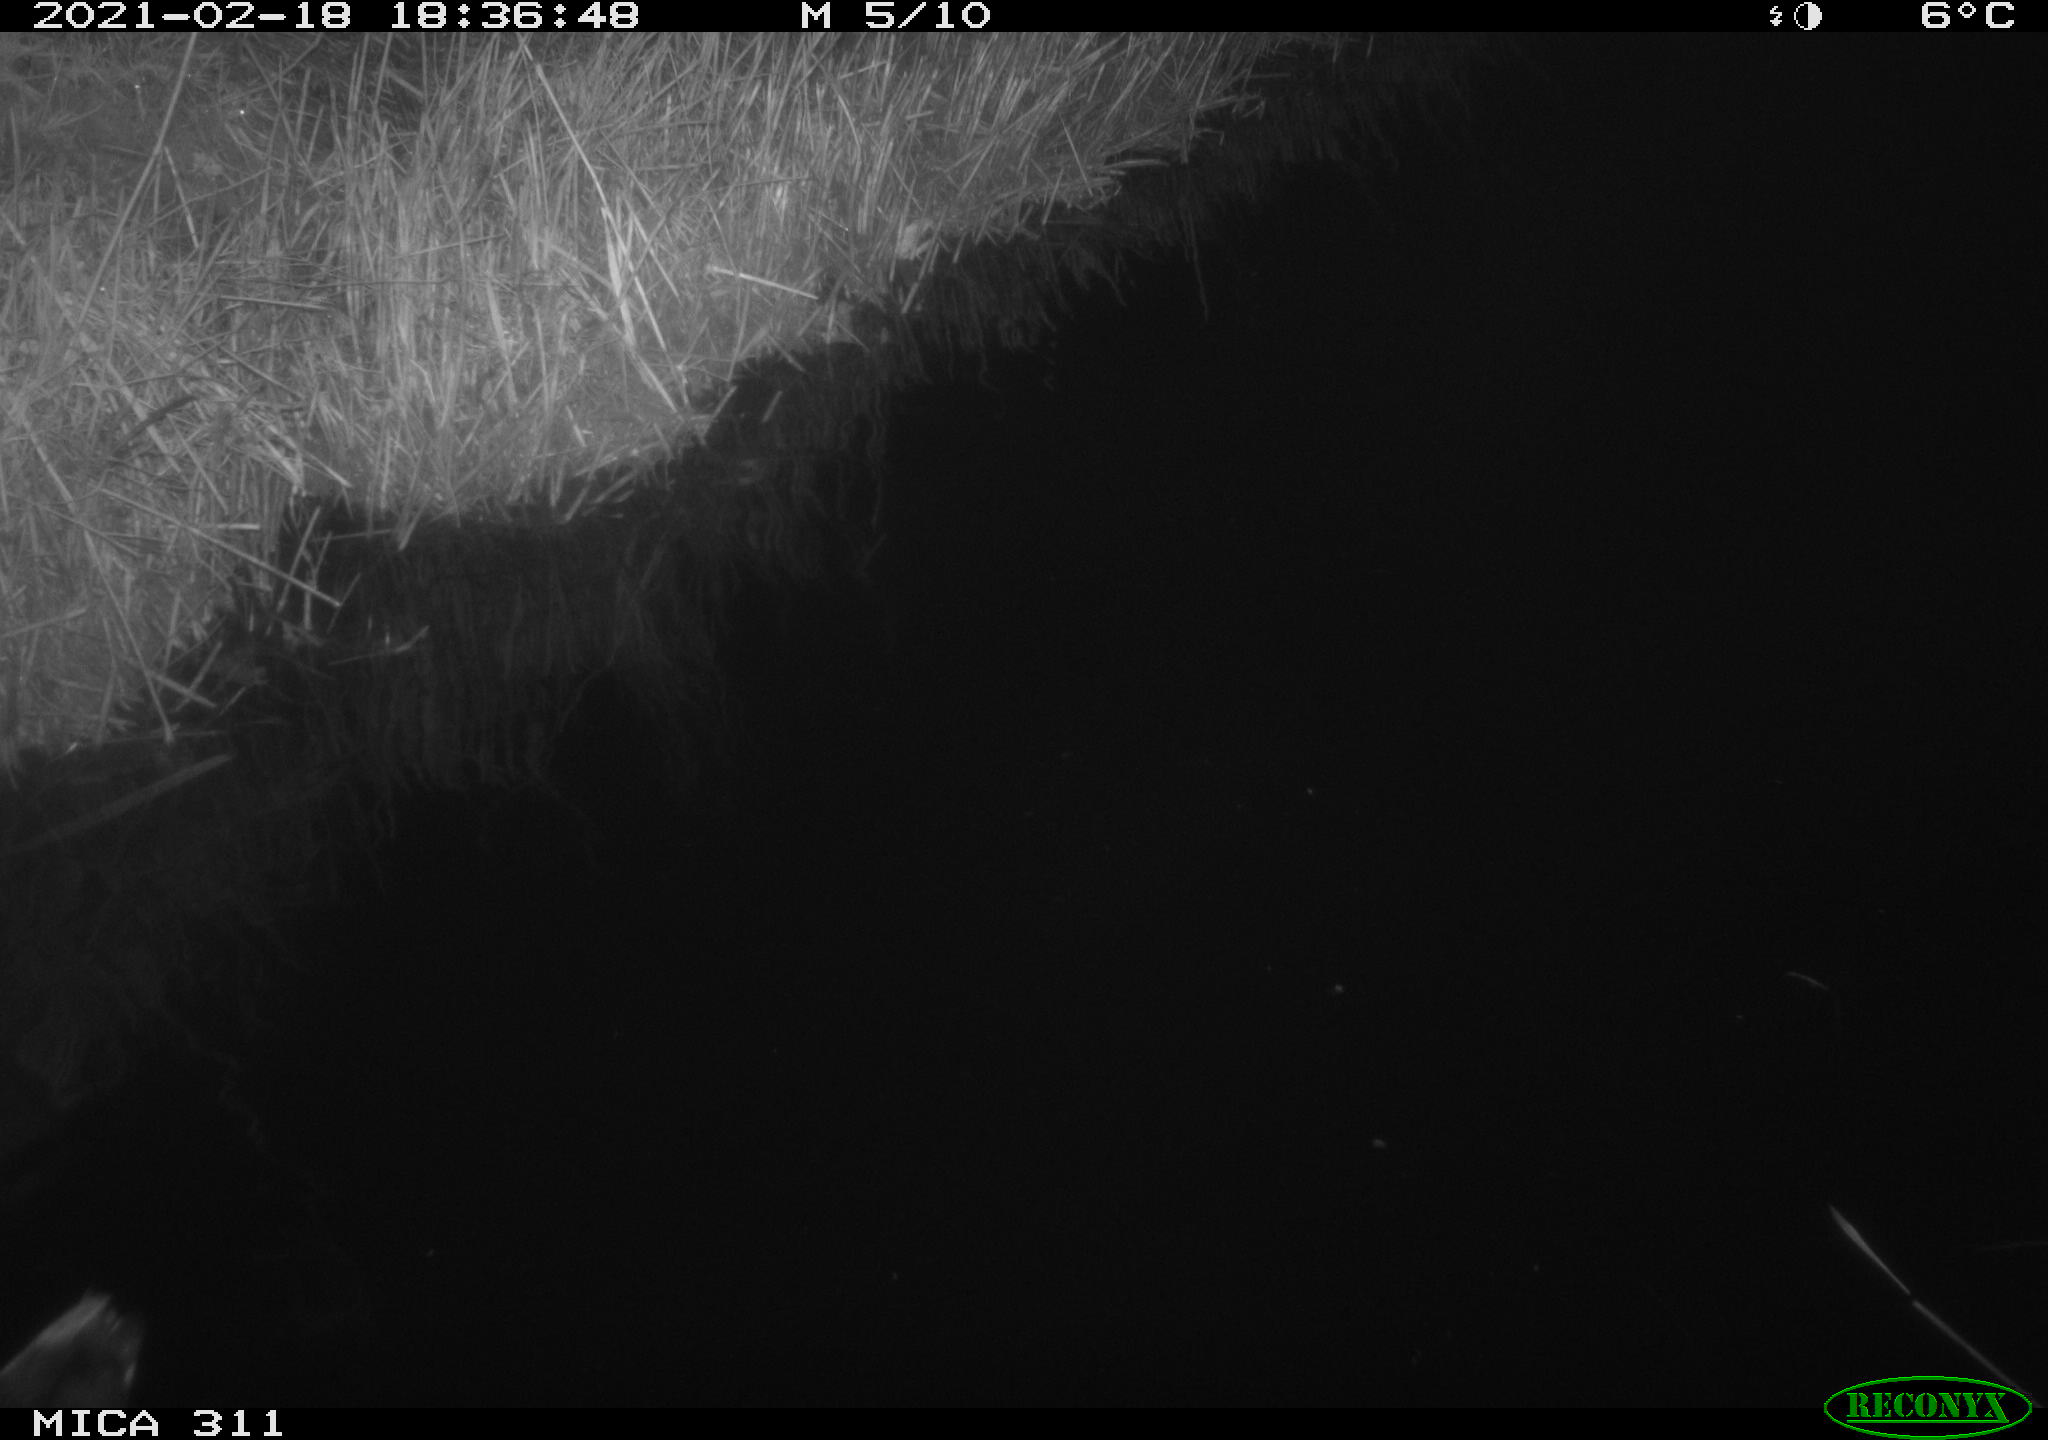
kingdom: Animalia
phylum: Chordata
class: Aves
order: Gruiformes
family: Rallidae
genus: Gallinula
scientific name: Gallinula chloropus
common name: Common moorhen
